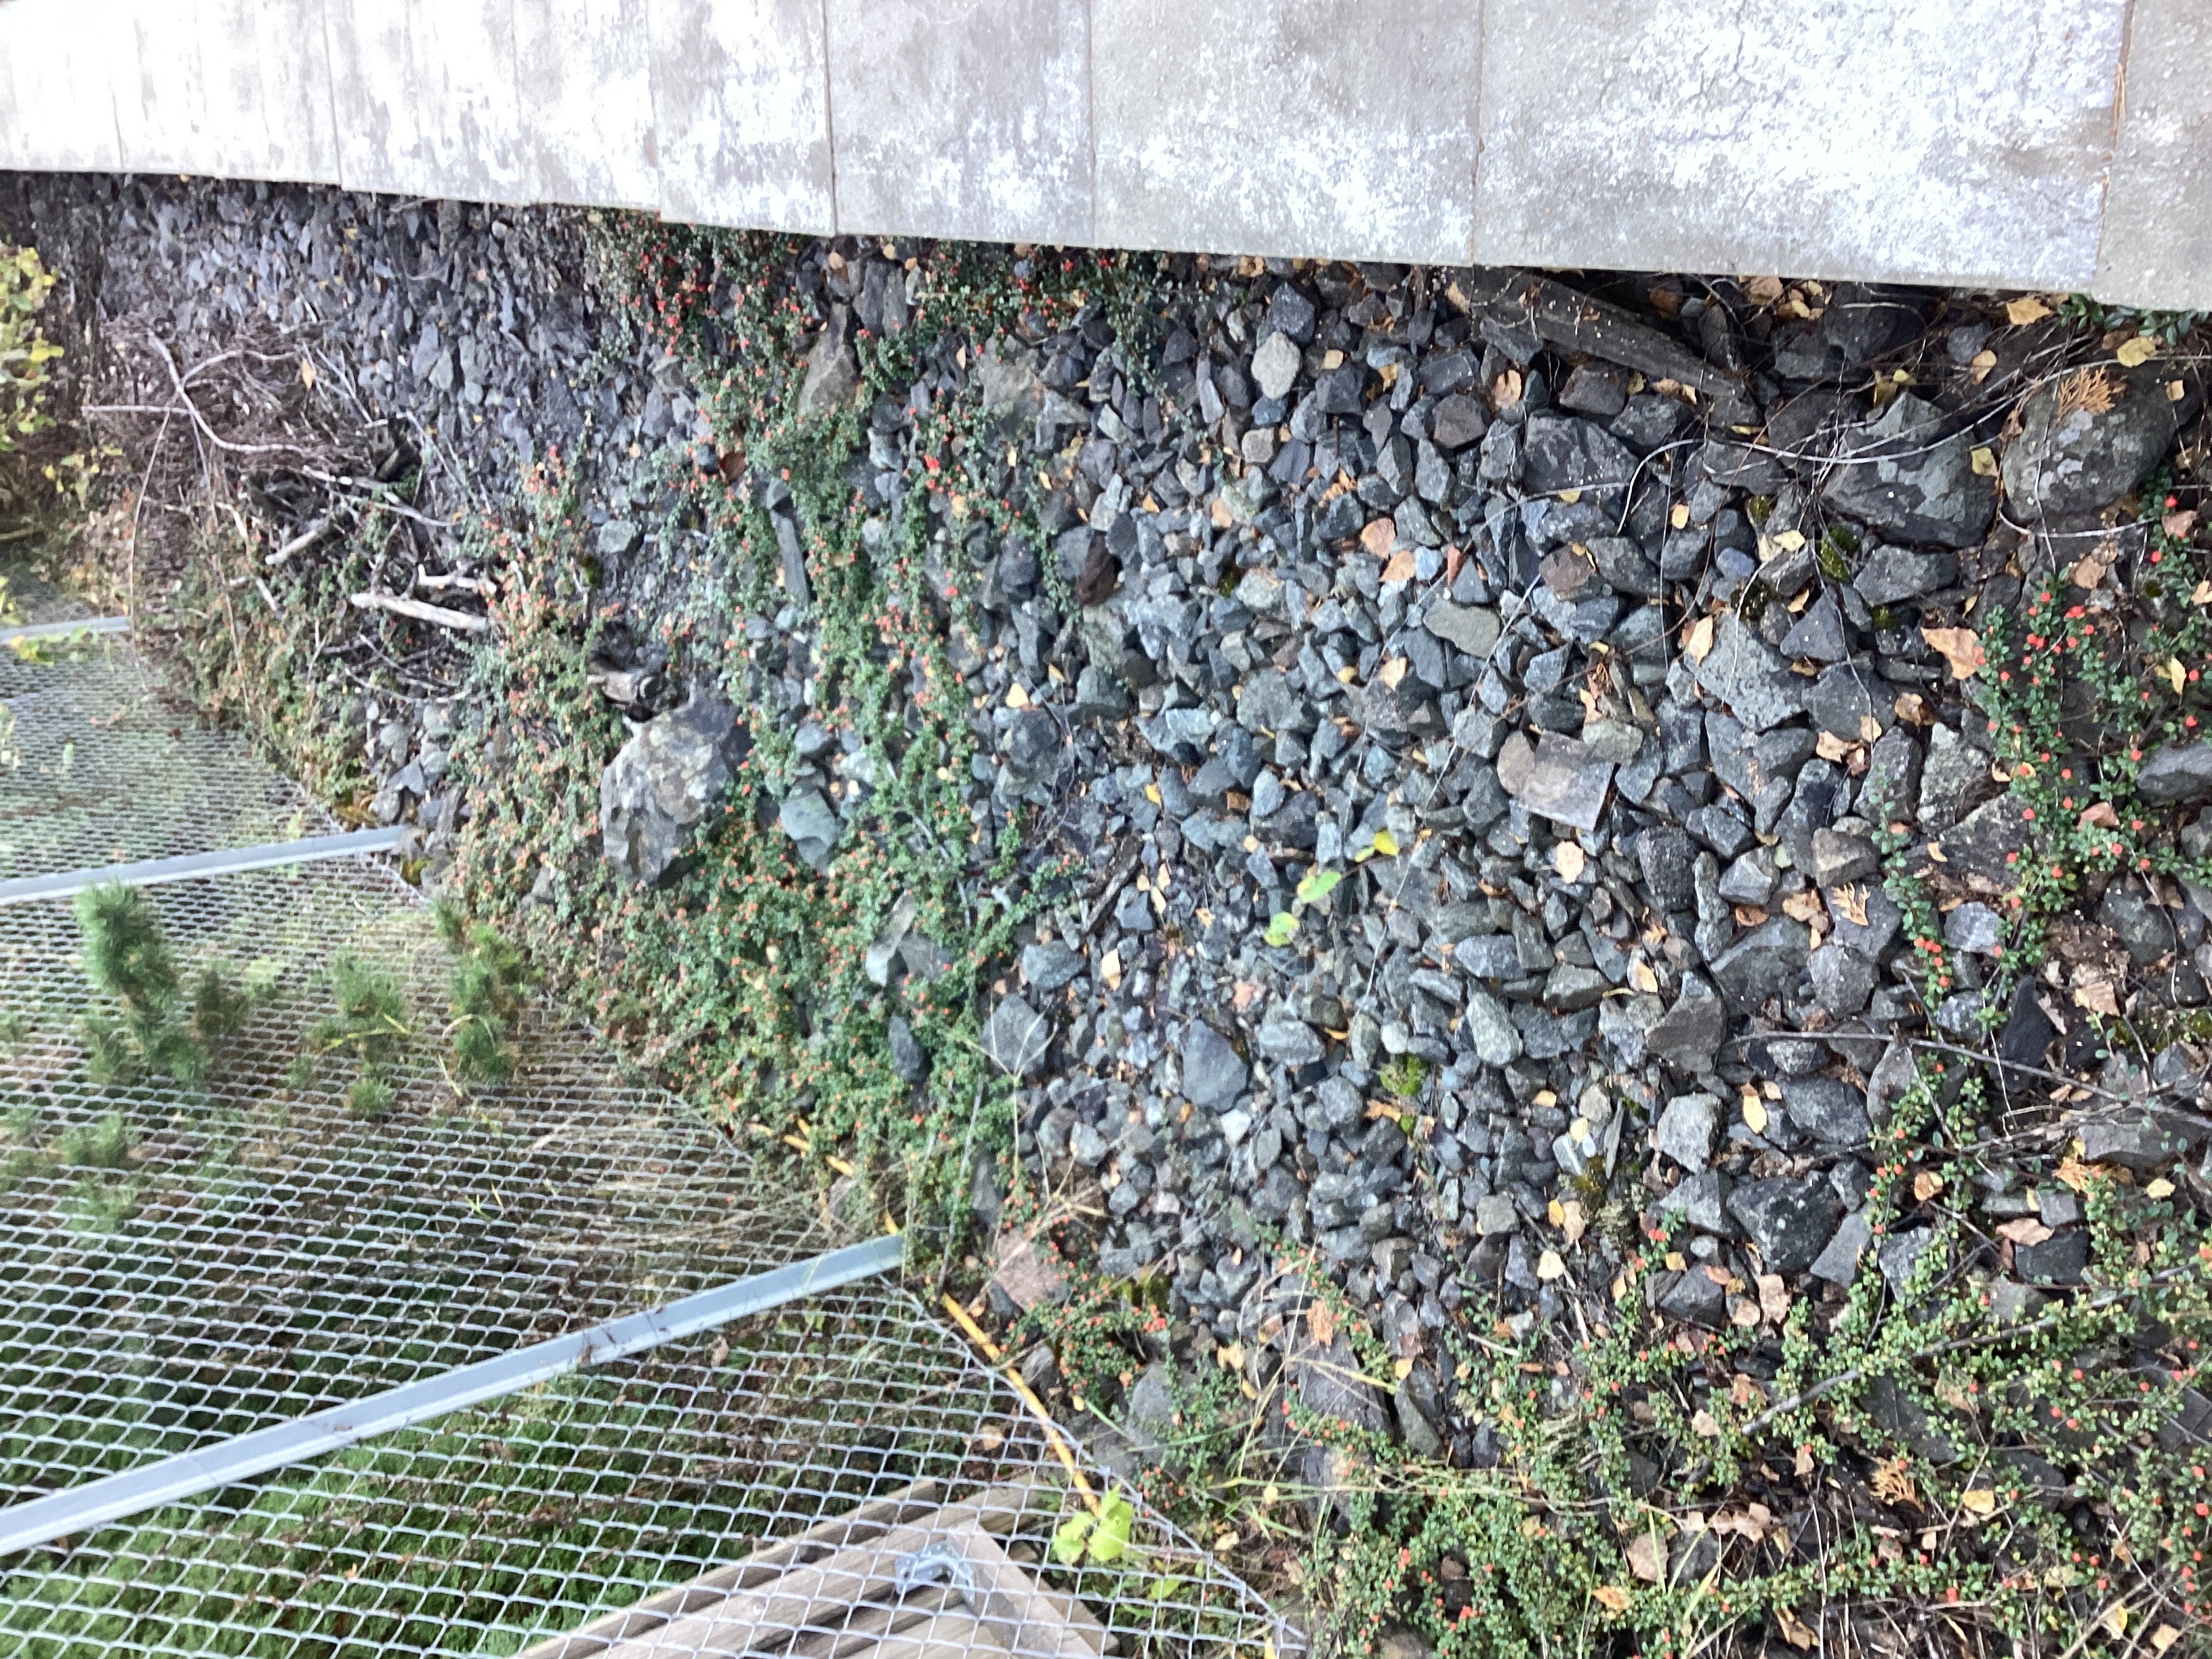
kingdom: Plantae
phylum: Tracheophyta
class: Magnoliopsida
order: Rosales
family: Rosaceae
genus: Cotoneaster
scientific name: Cotoneaster dammeri
